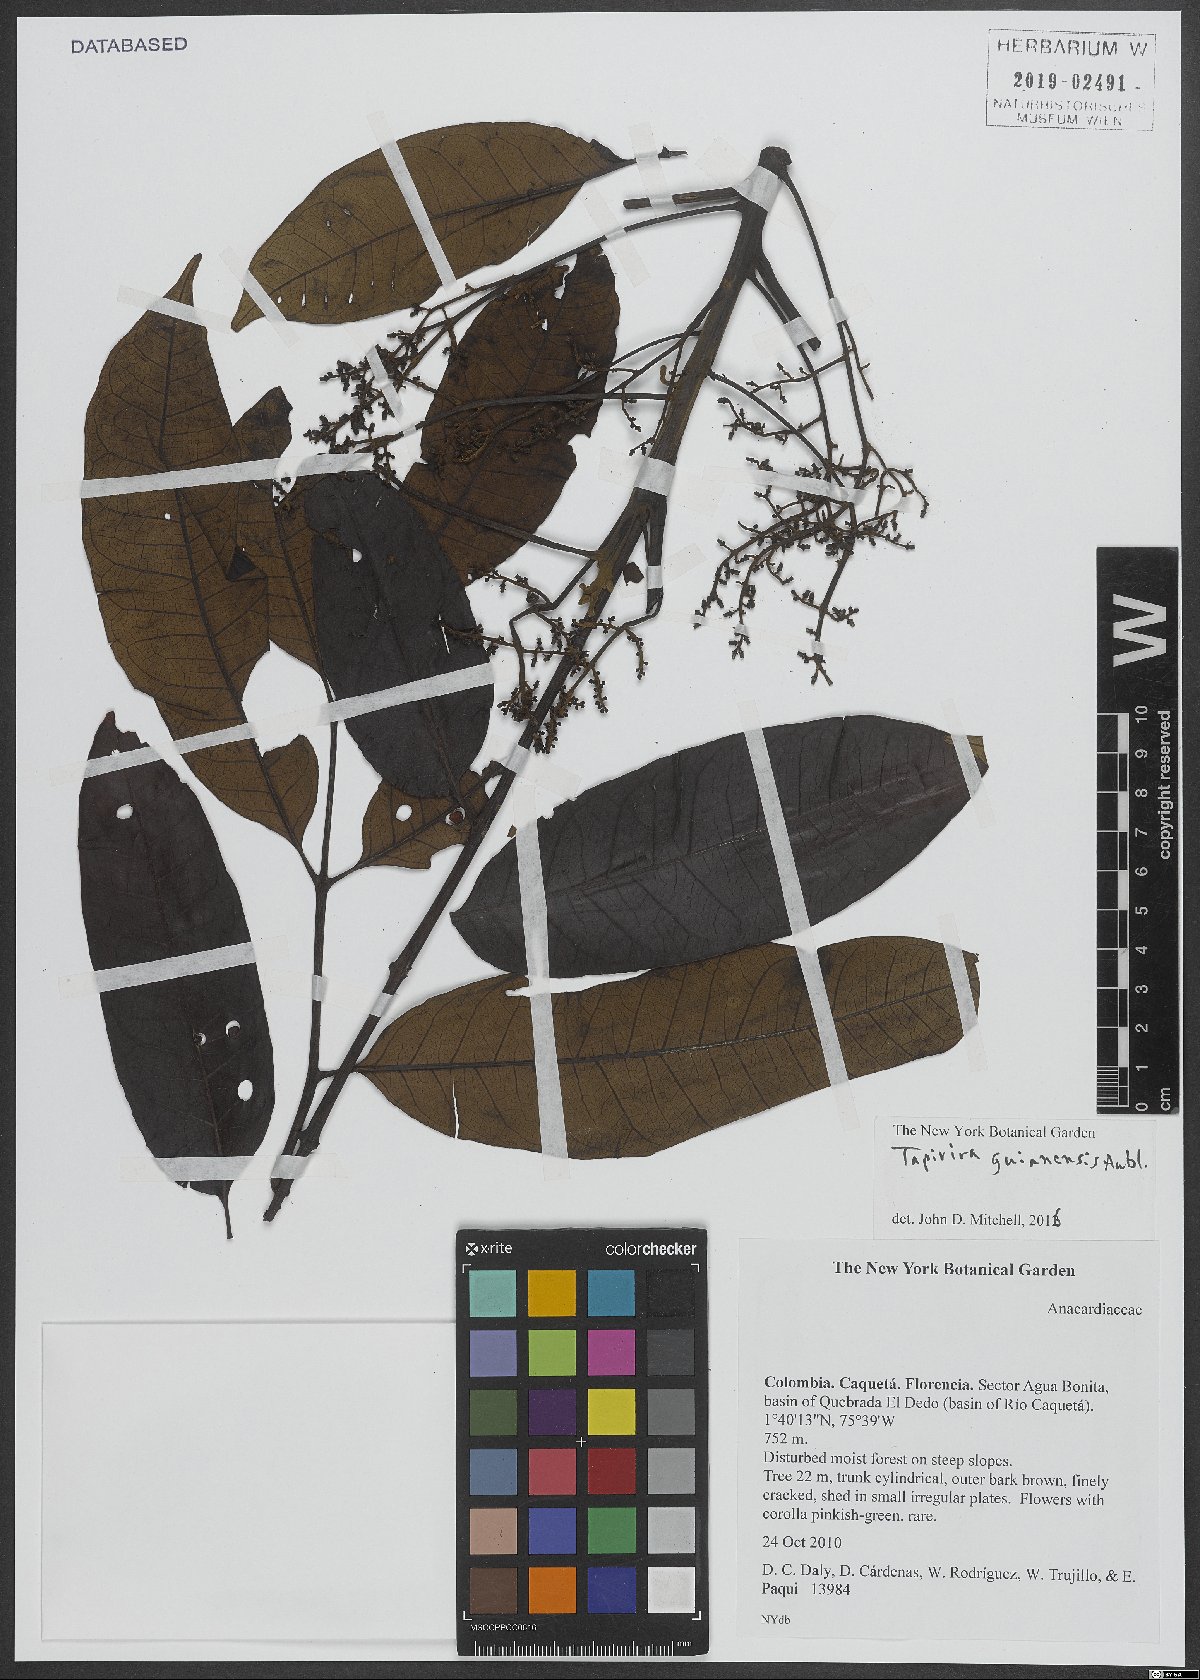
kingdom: Plantae
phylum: Tracheophyta
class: Magnoliopsida
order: Sapindales
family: Anacardiaceae
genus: Tapirira
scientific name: Tapirira guianensis
